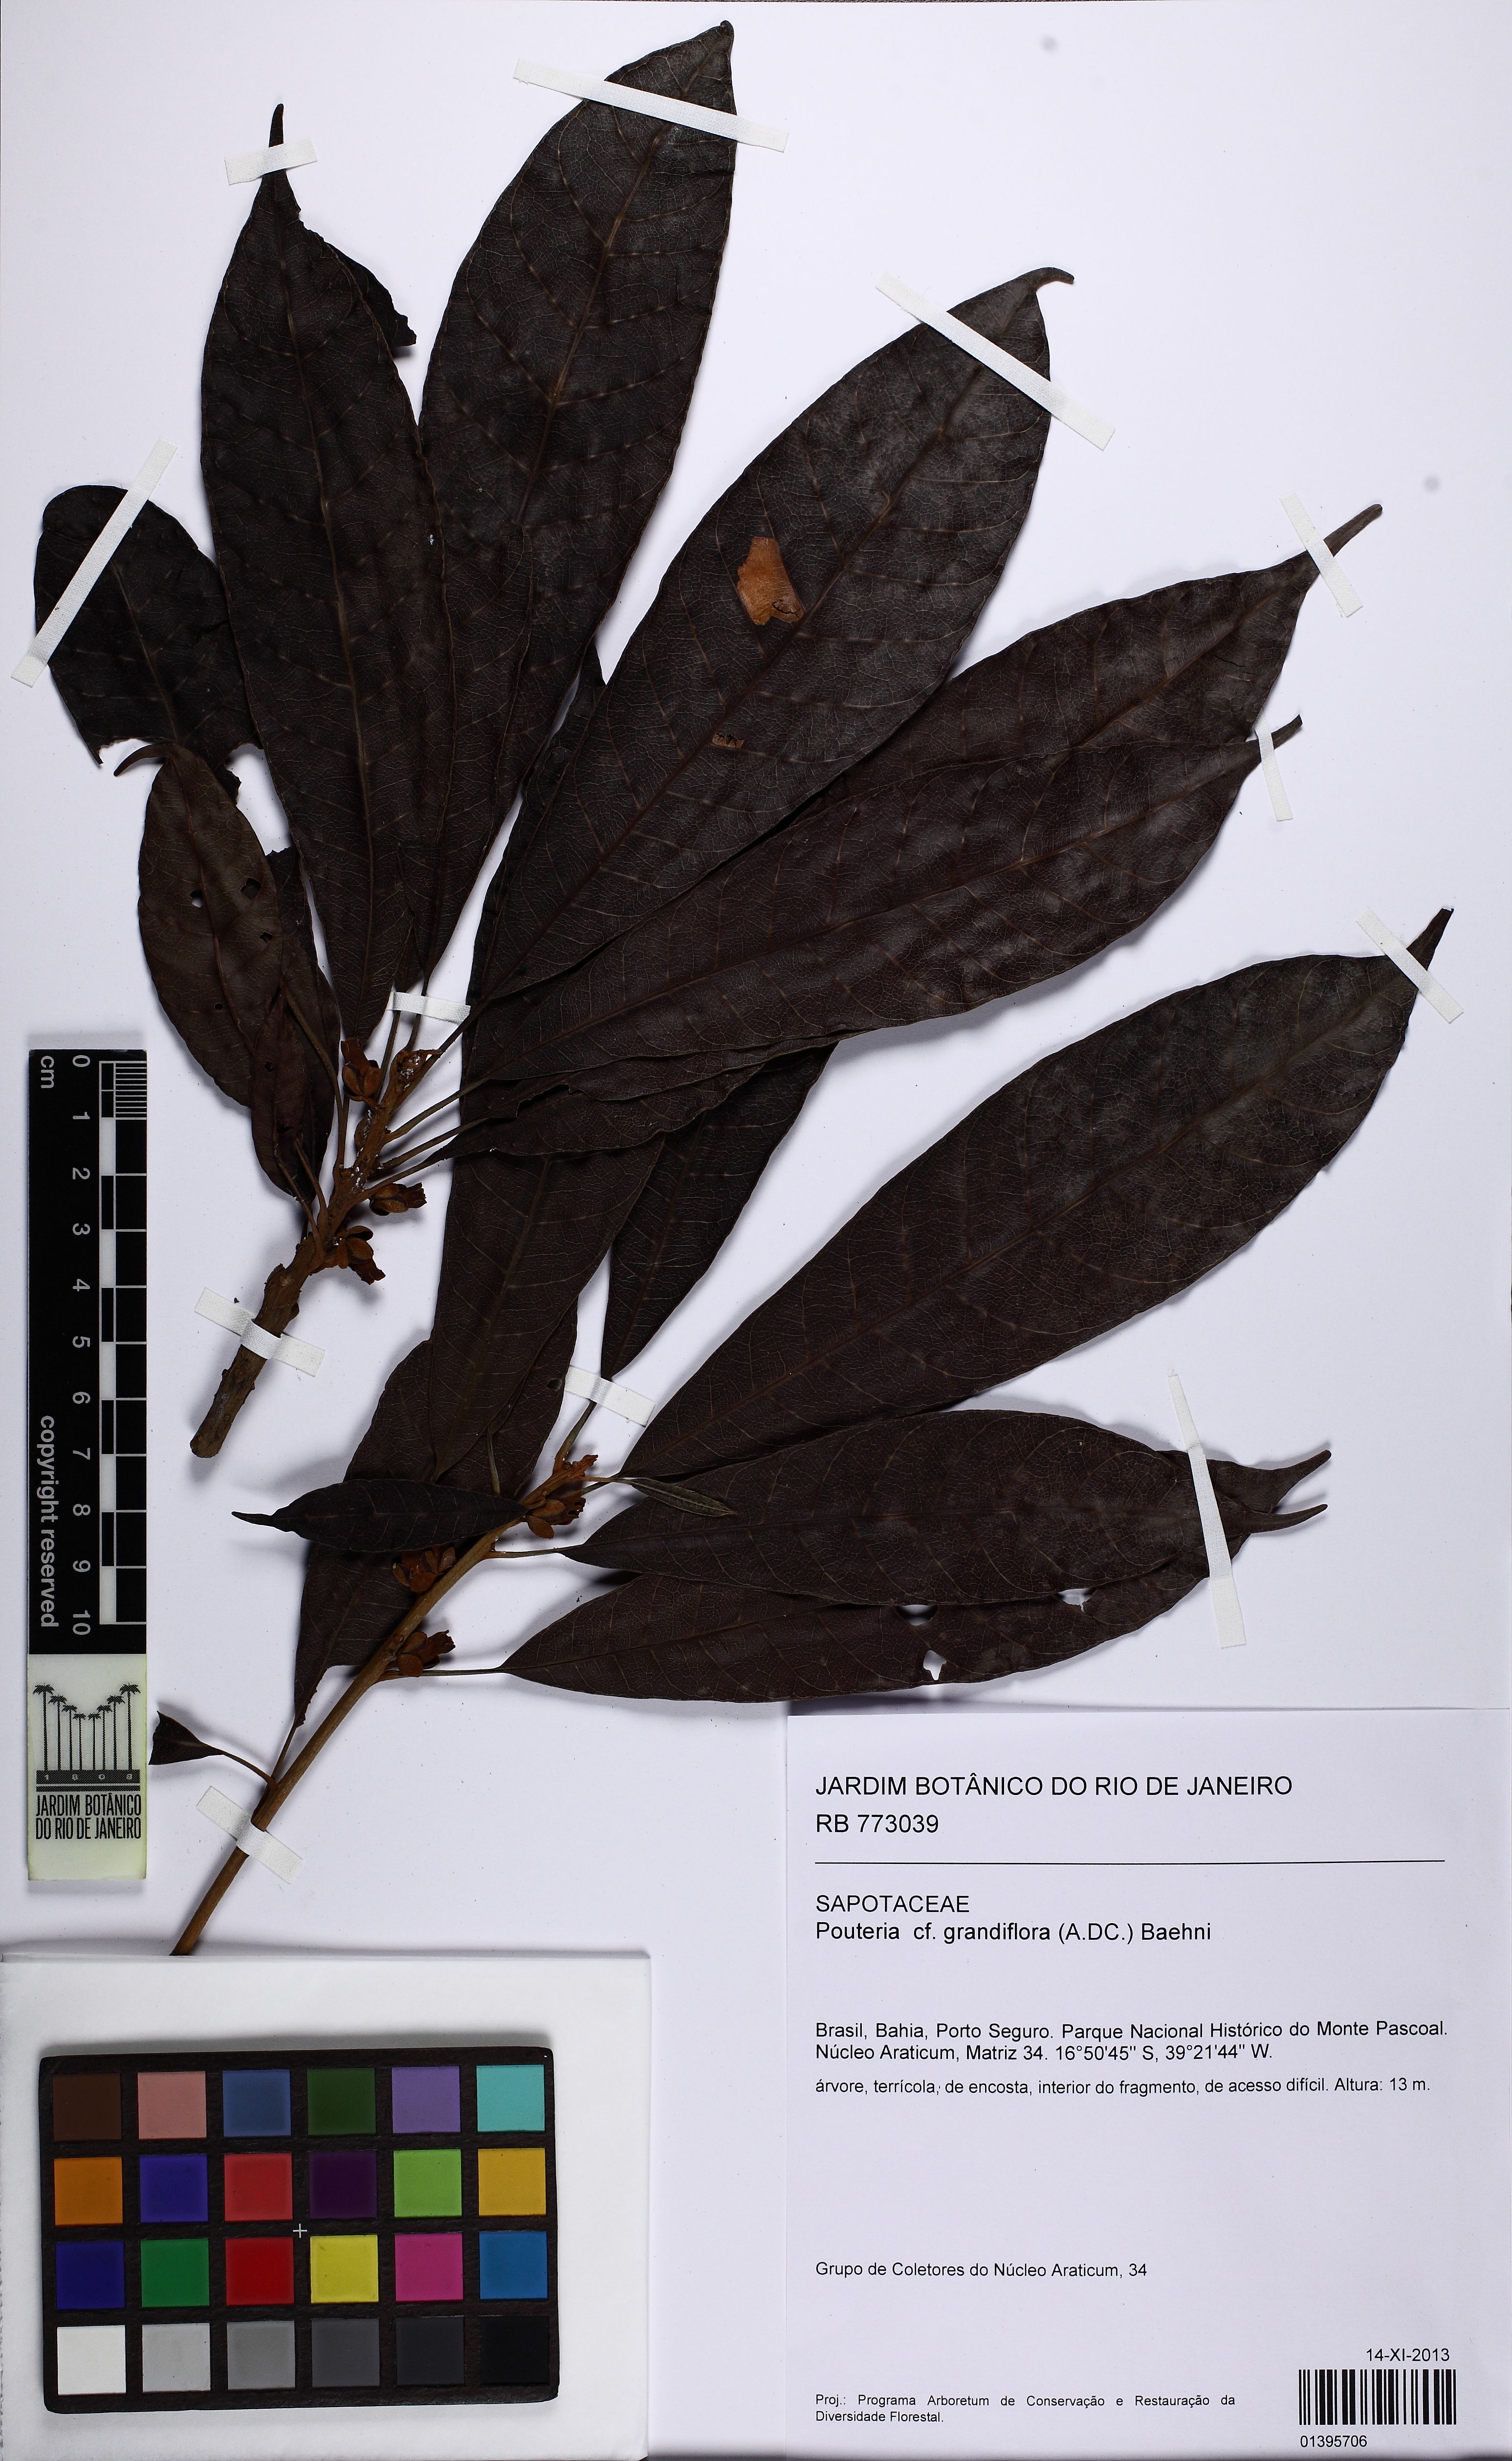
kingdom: Plantae
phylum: Tracheophyta
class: Magnoliopsida
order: Ericales
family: Sapotaceae
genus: Pouteria
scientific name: Pouteria guianensis
